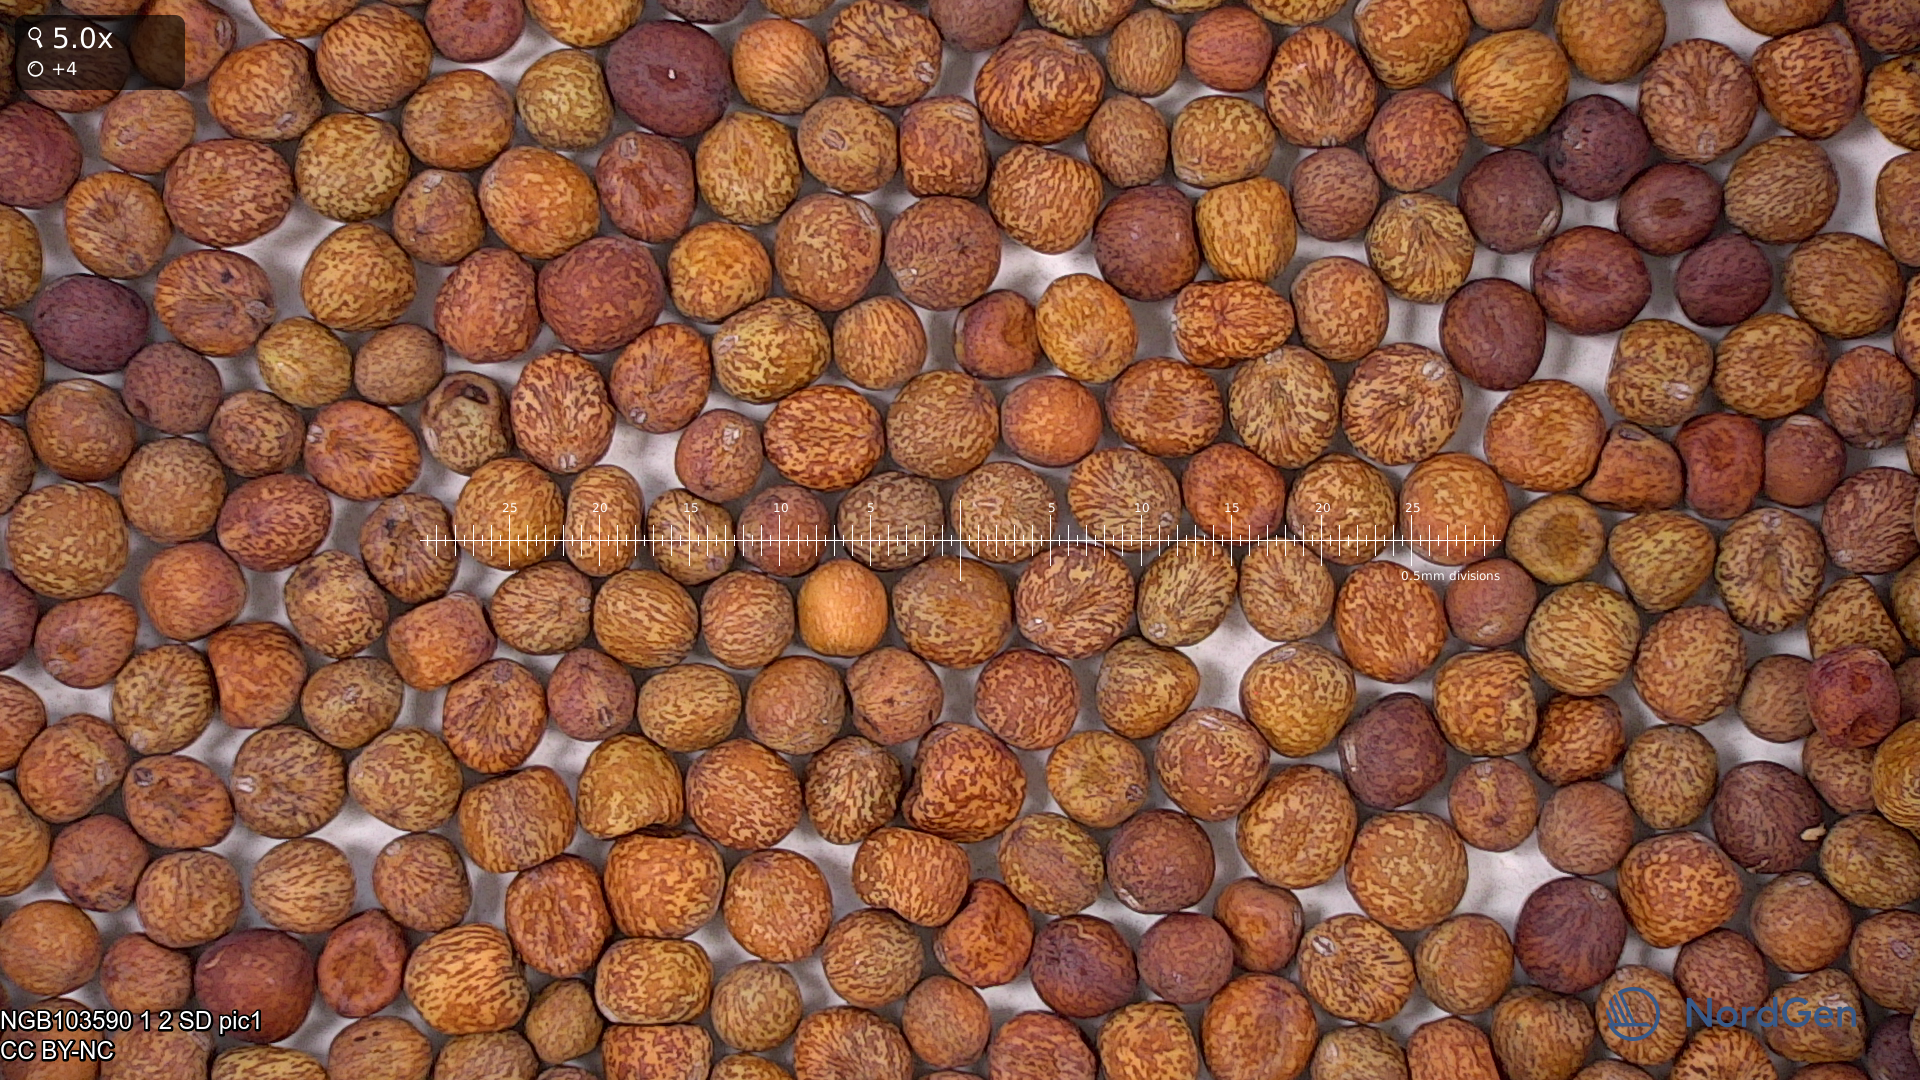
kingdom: Plantae
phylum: Tracheophyta
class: Magnoliopsida
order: Fabales
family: Fabaceae
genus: Lathyrus
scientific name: Lathyrus oleraceus
